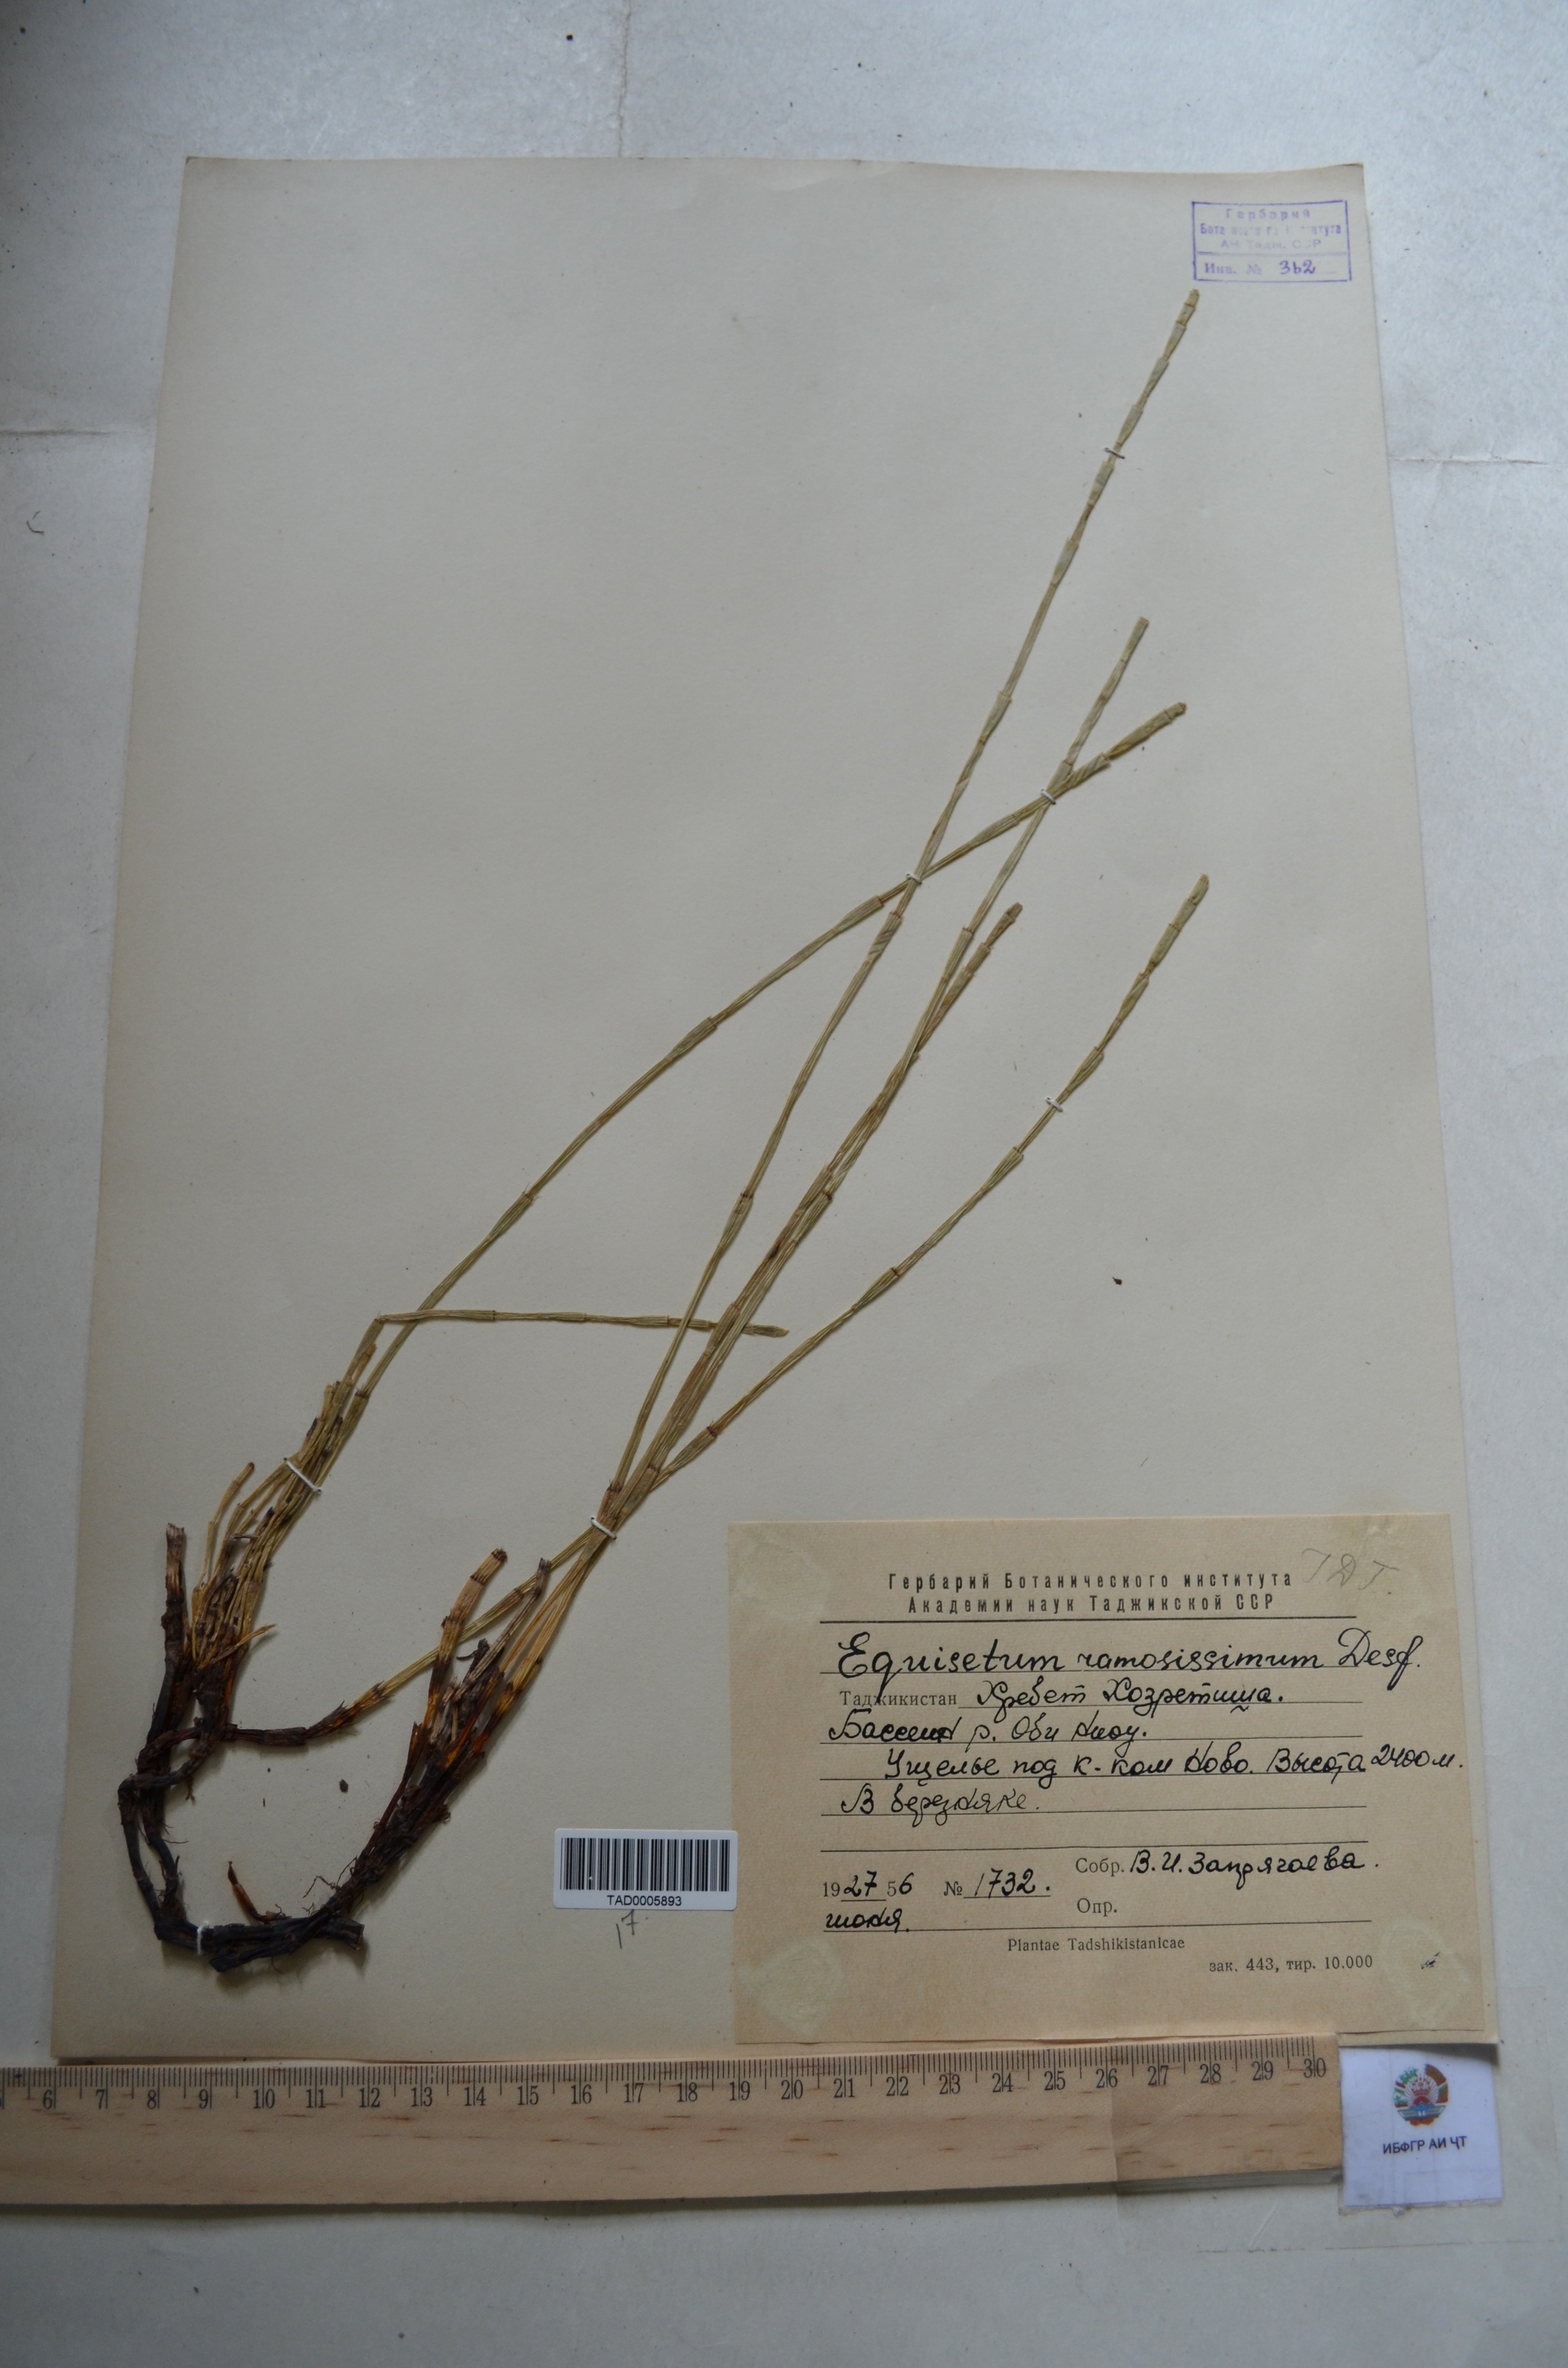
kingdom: Plantae
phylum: Tracheophyta
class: Polypodiopsida
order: Equisetales
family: Equisetaceae
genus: Equisetum
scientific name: Equisetum ramosissimum
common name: Branched horsetail
